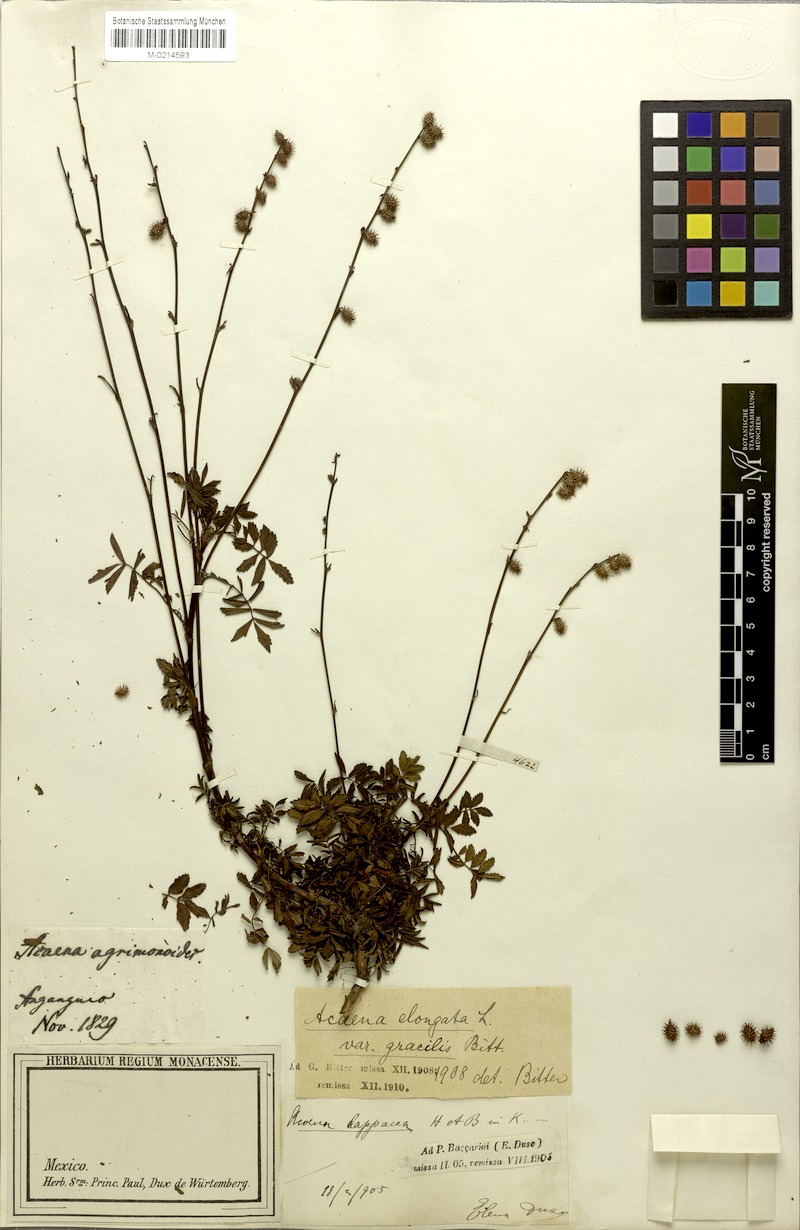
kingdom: Plantae
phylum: Tracheophyta
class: Magnoliopsida
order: Rosales
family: Rosaceae
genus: Acaena
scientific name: Acaena elongata
